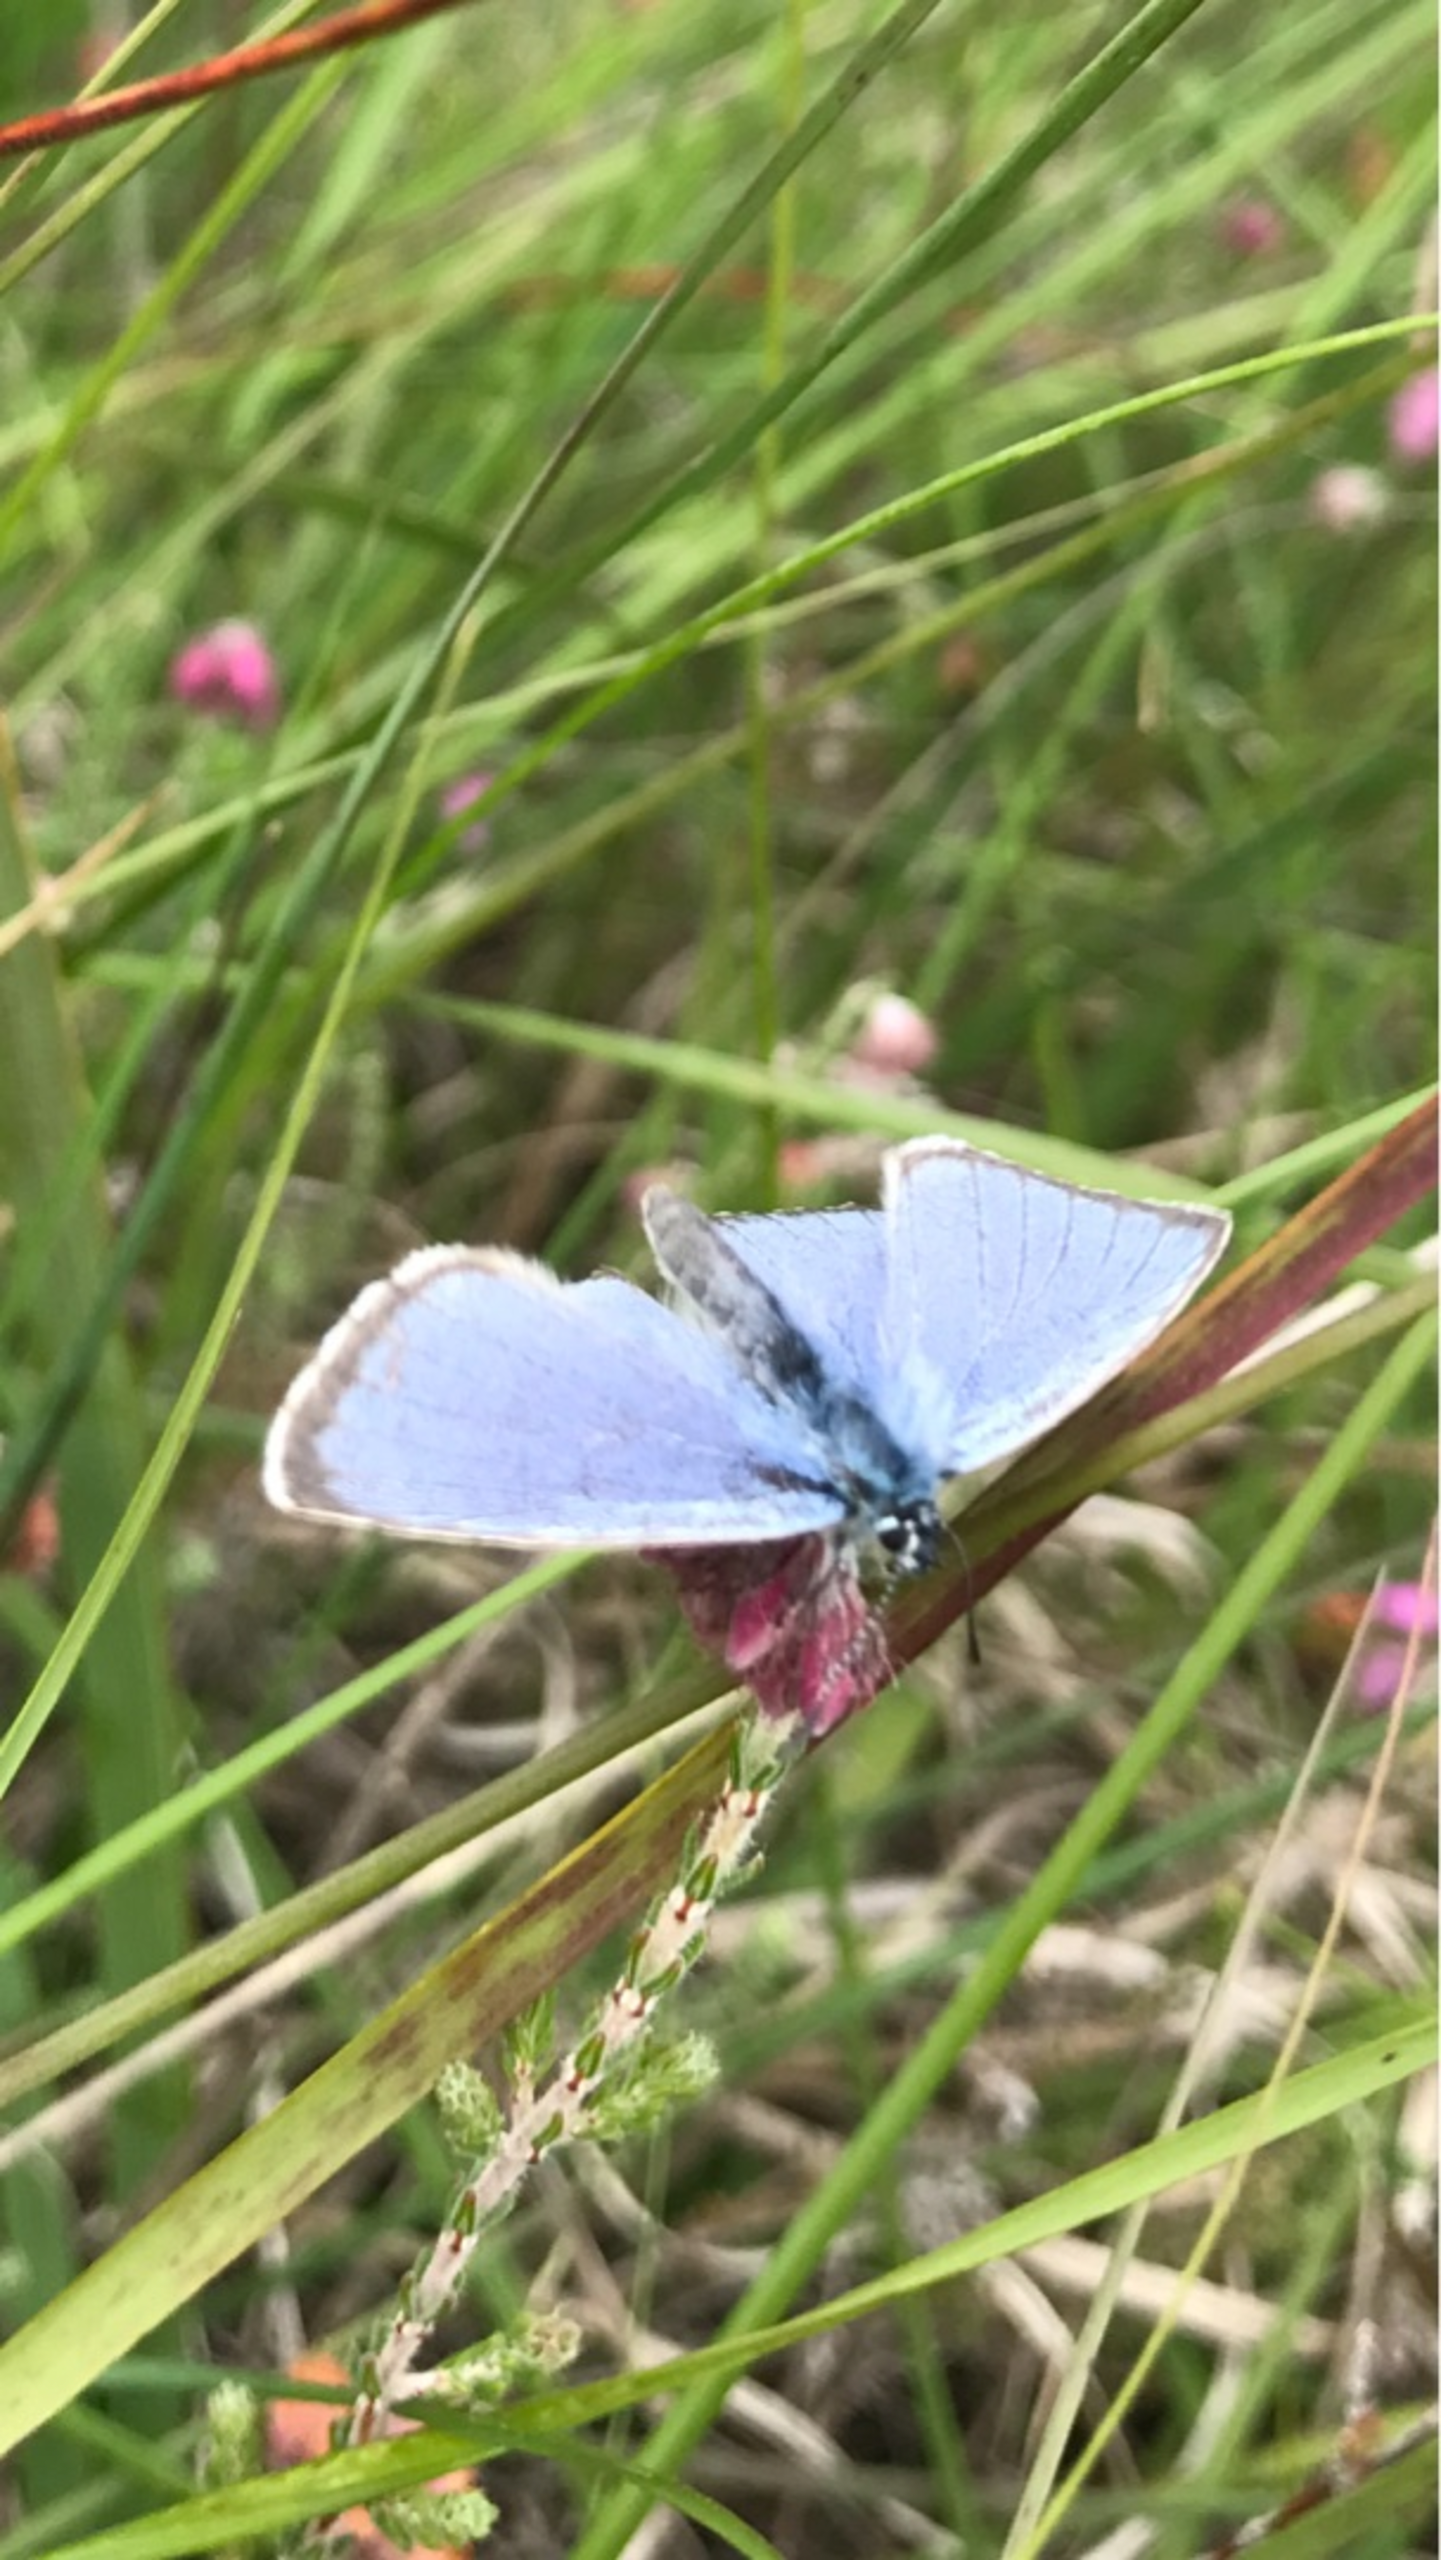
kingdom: Animalia
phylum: Arthropoda
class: Insecta
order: Lepidoptera
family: Lycaenidae
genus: Maculinea
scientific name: Maculinea alcon
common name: Ensianblåfugl
